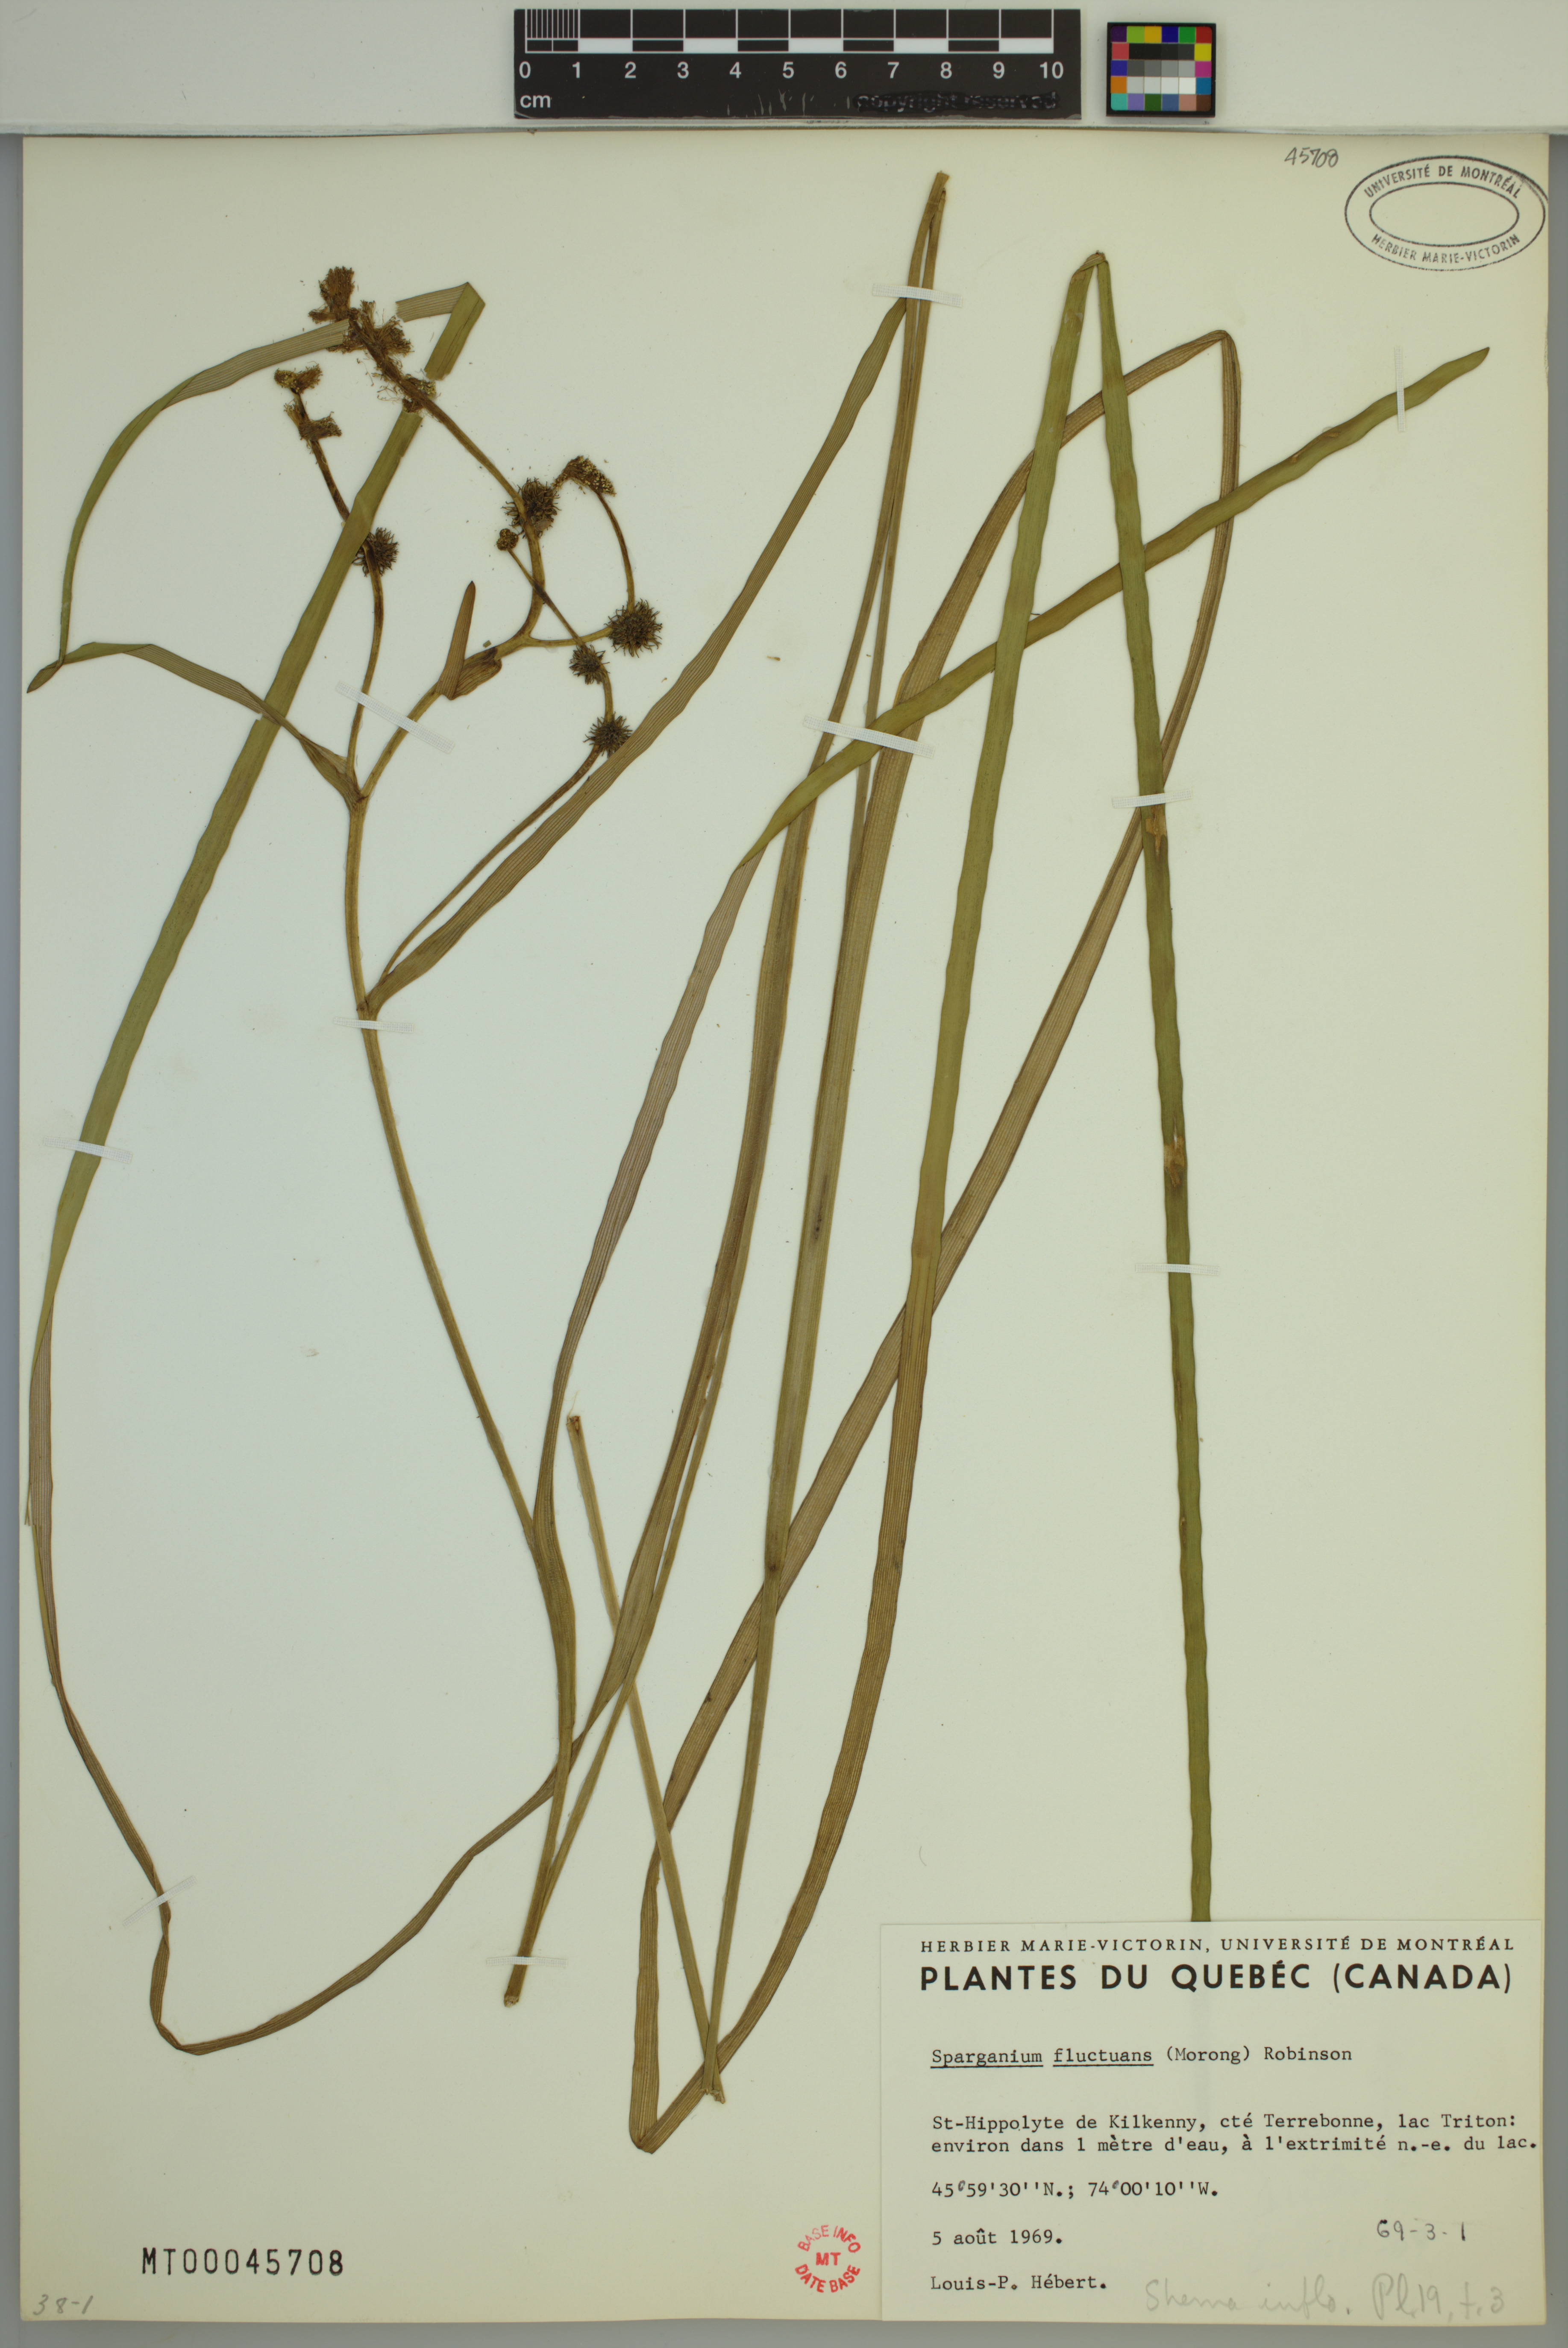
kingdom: Plantae
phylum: Tracheophyta
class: Liliopsida
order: Poales
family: Typhaceae
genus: Sparganium
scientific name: Sparganium fluctuans
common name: Floating burreed
